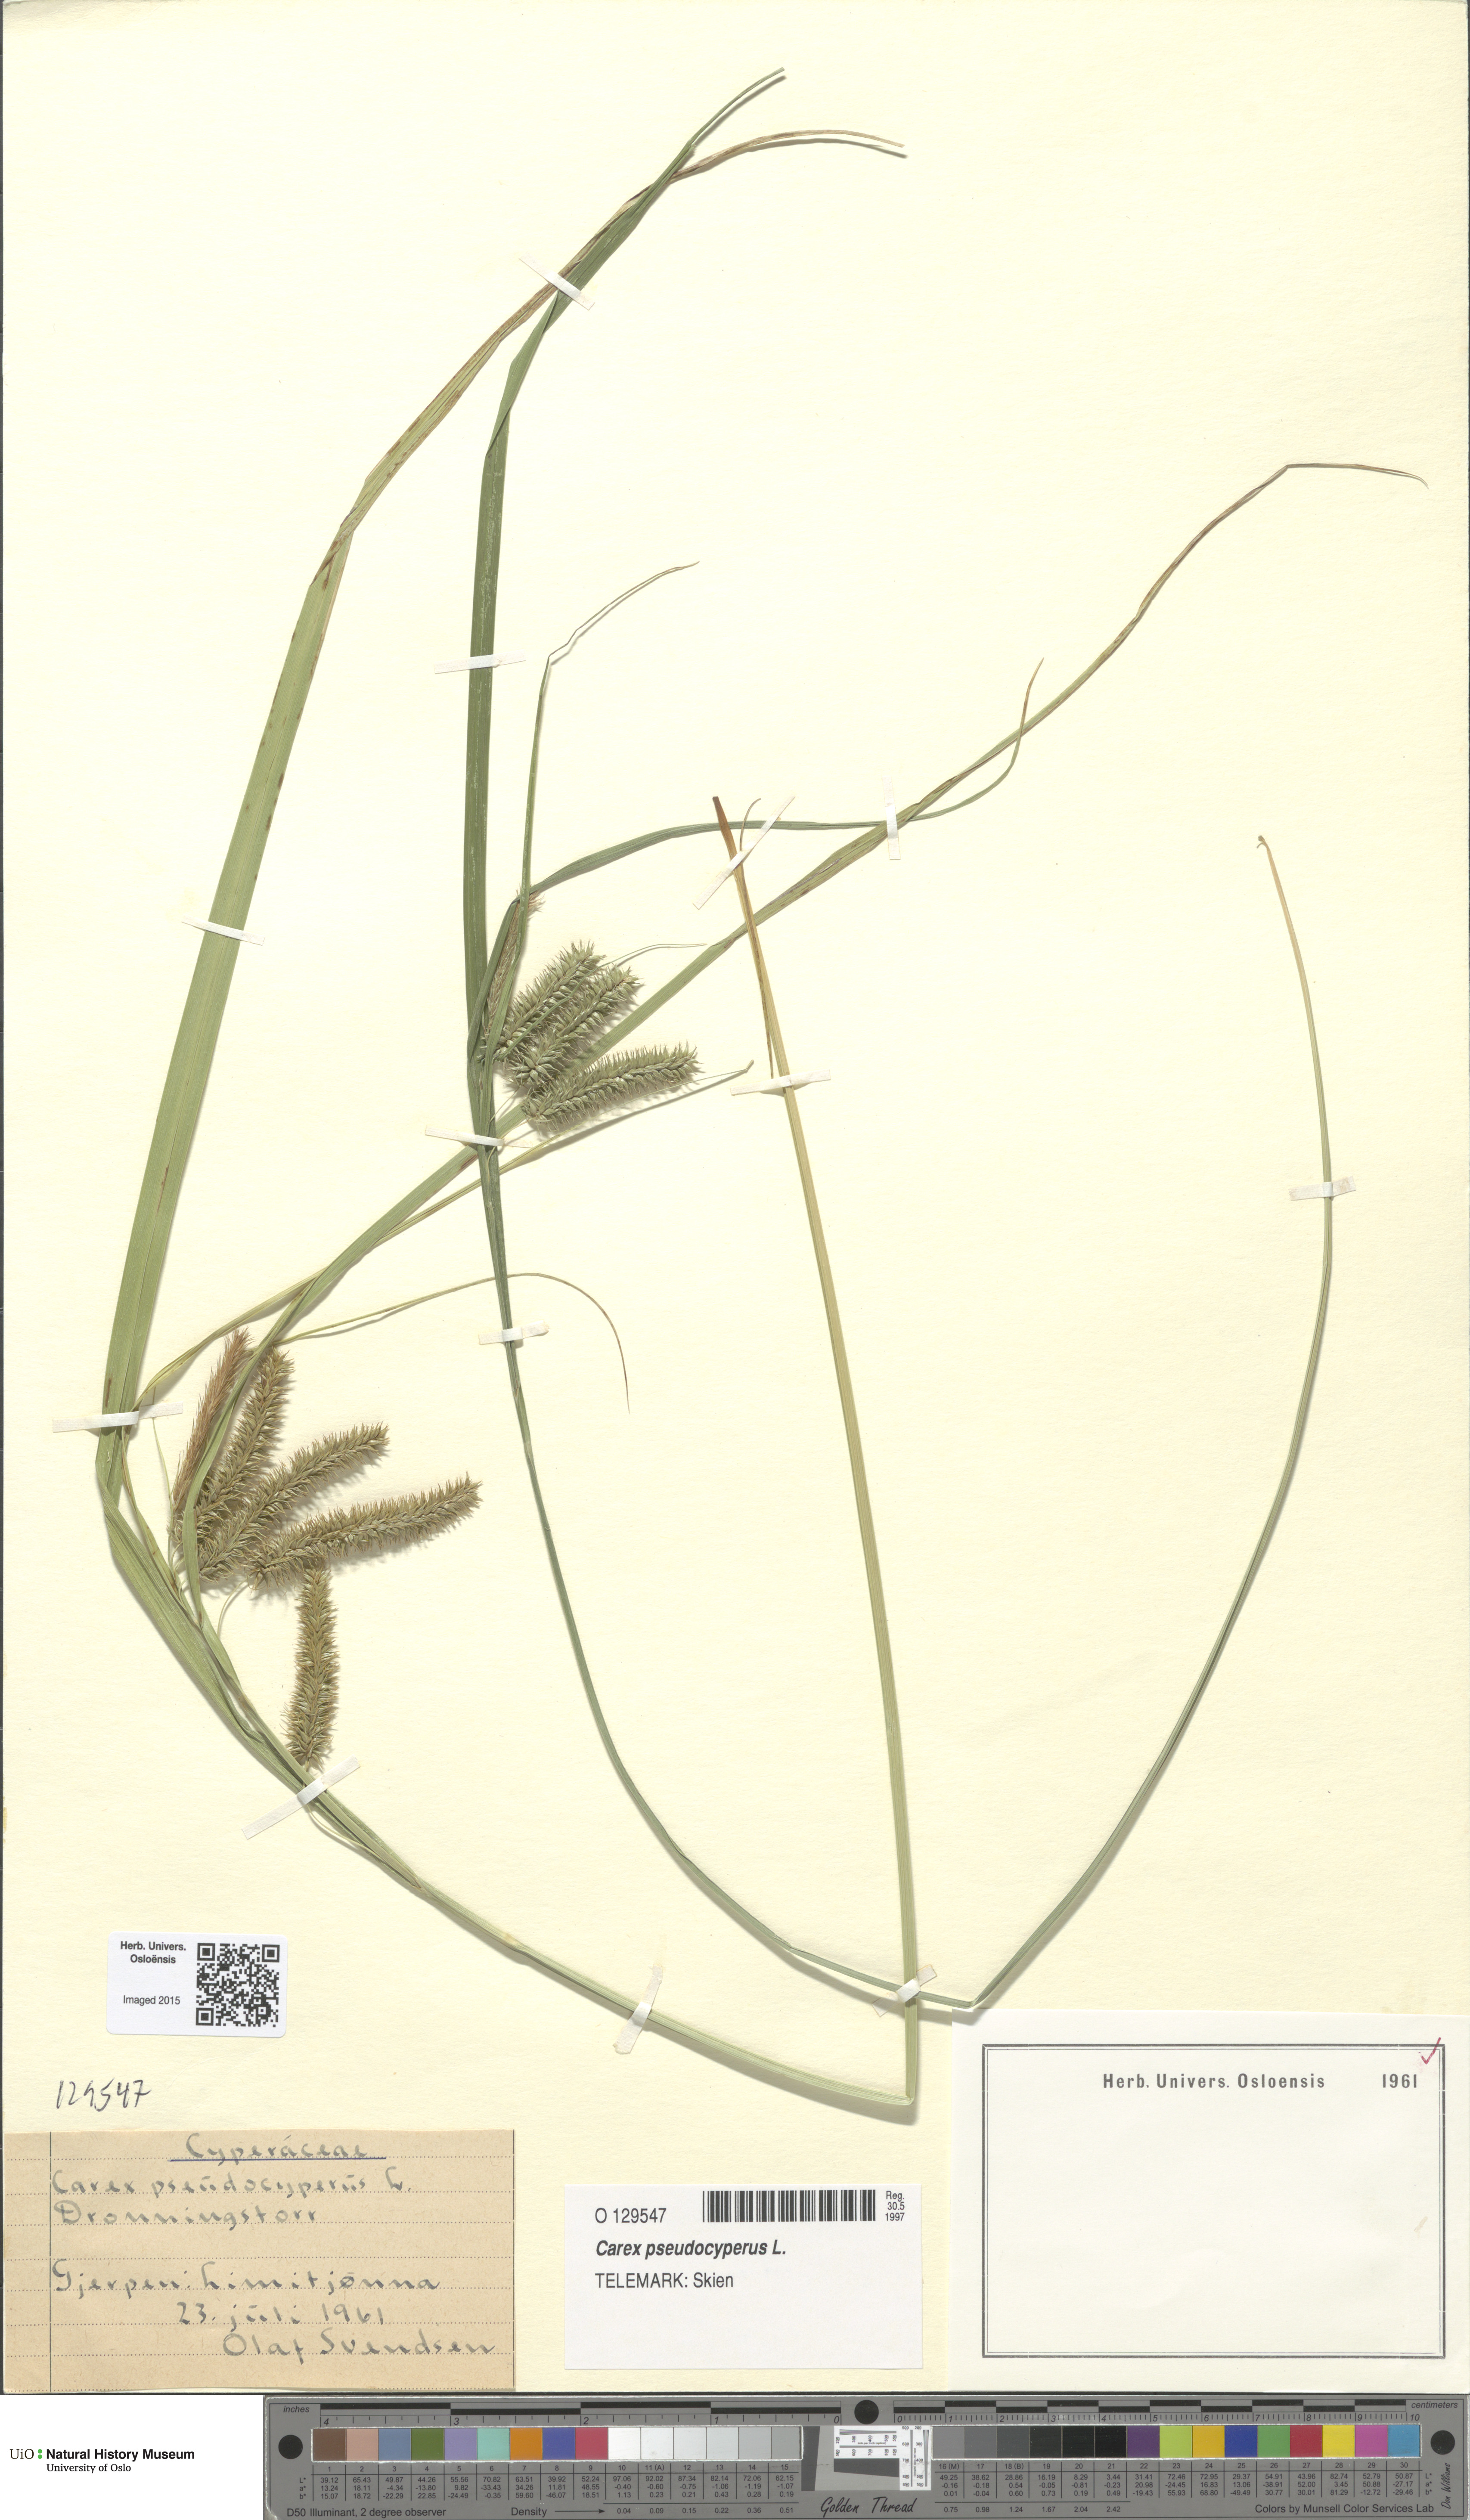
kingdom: Plantae
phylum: Tracheophyta
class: Liliopsida
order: Poales
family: Cyperaceae
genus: Carex
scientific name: Carex pseudocyperus
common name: Cyperus sedge
